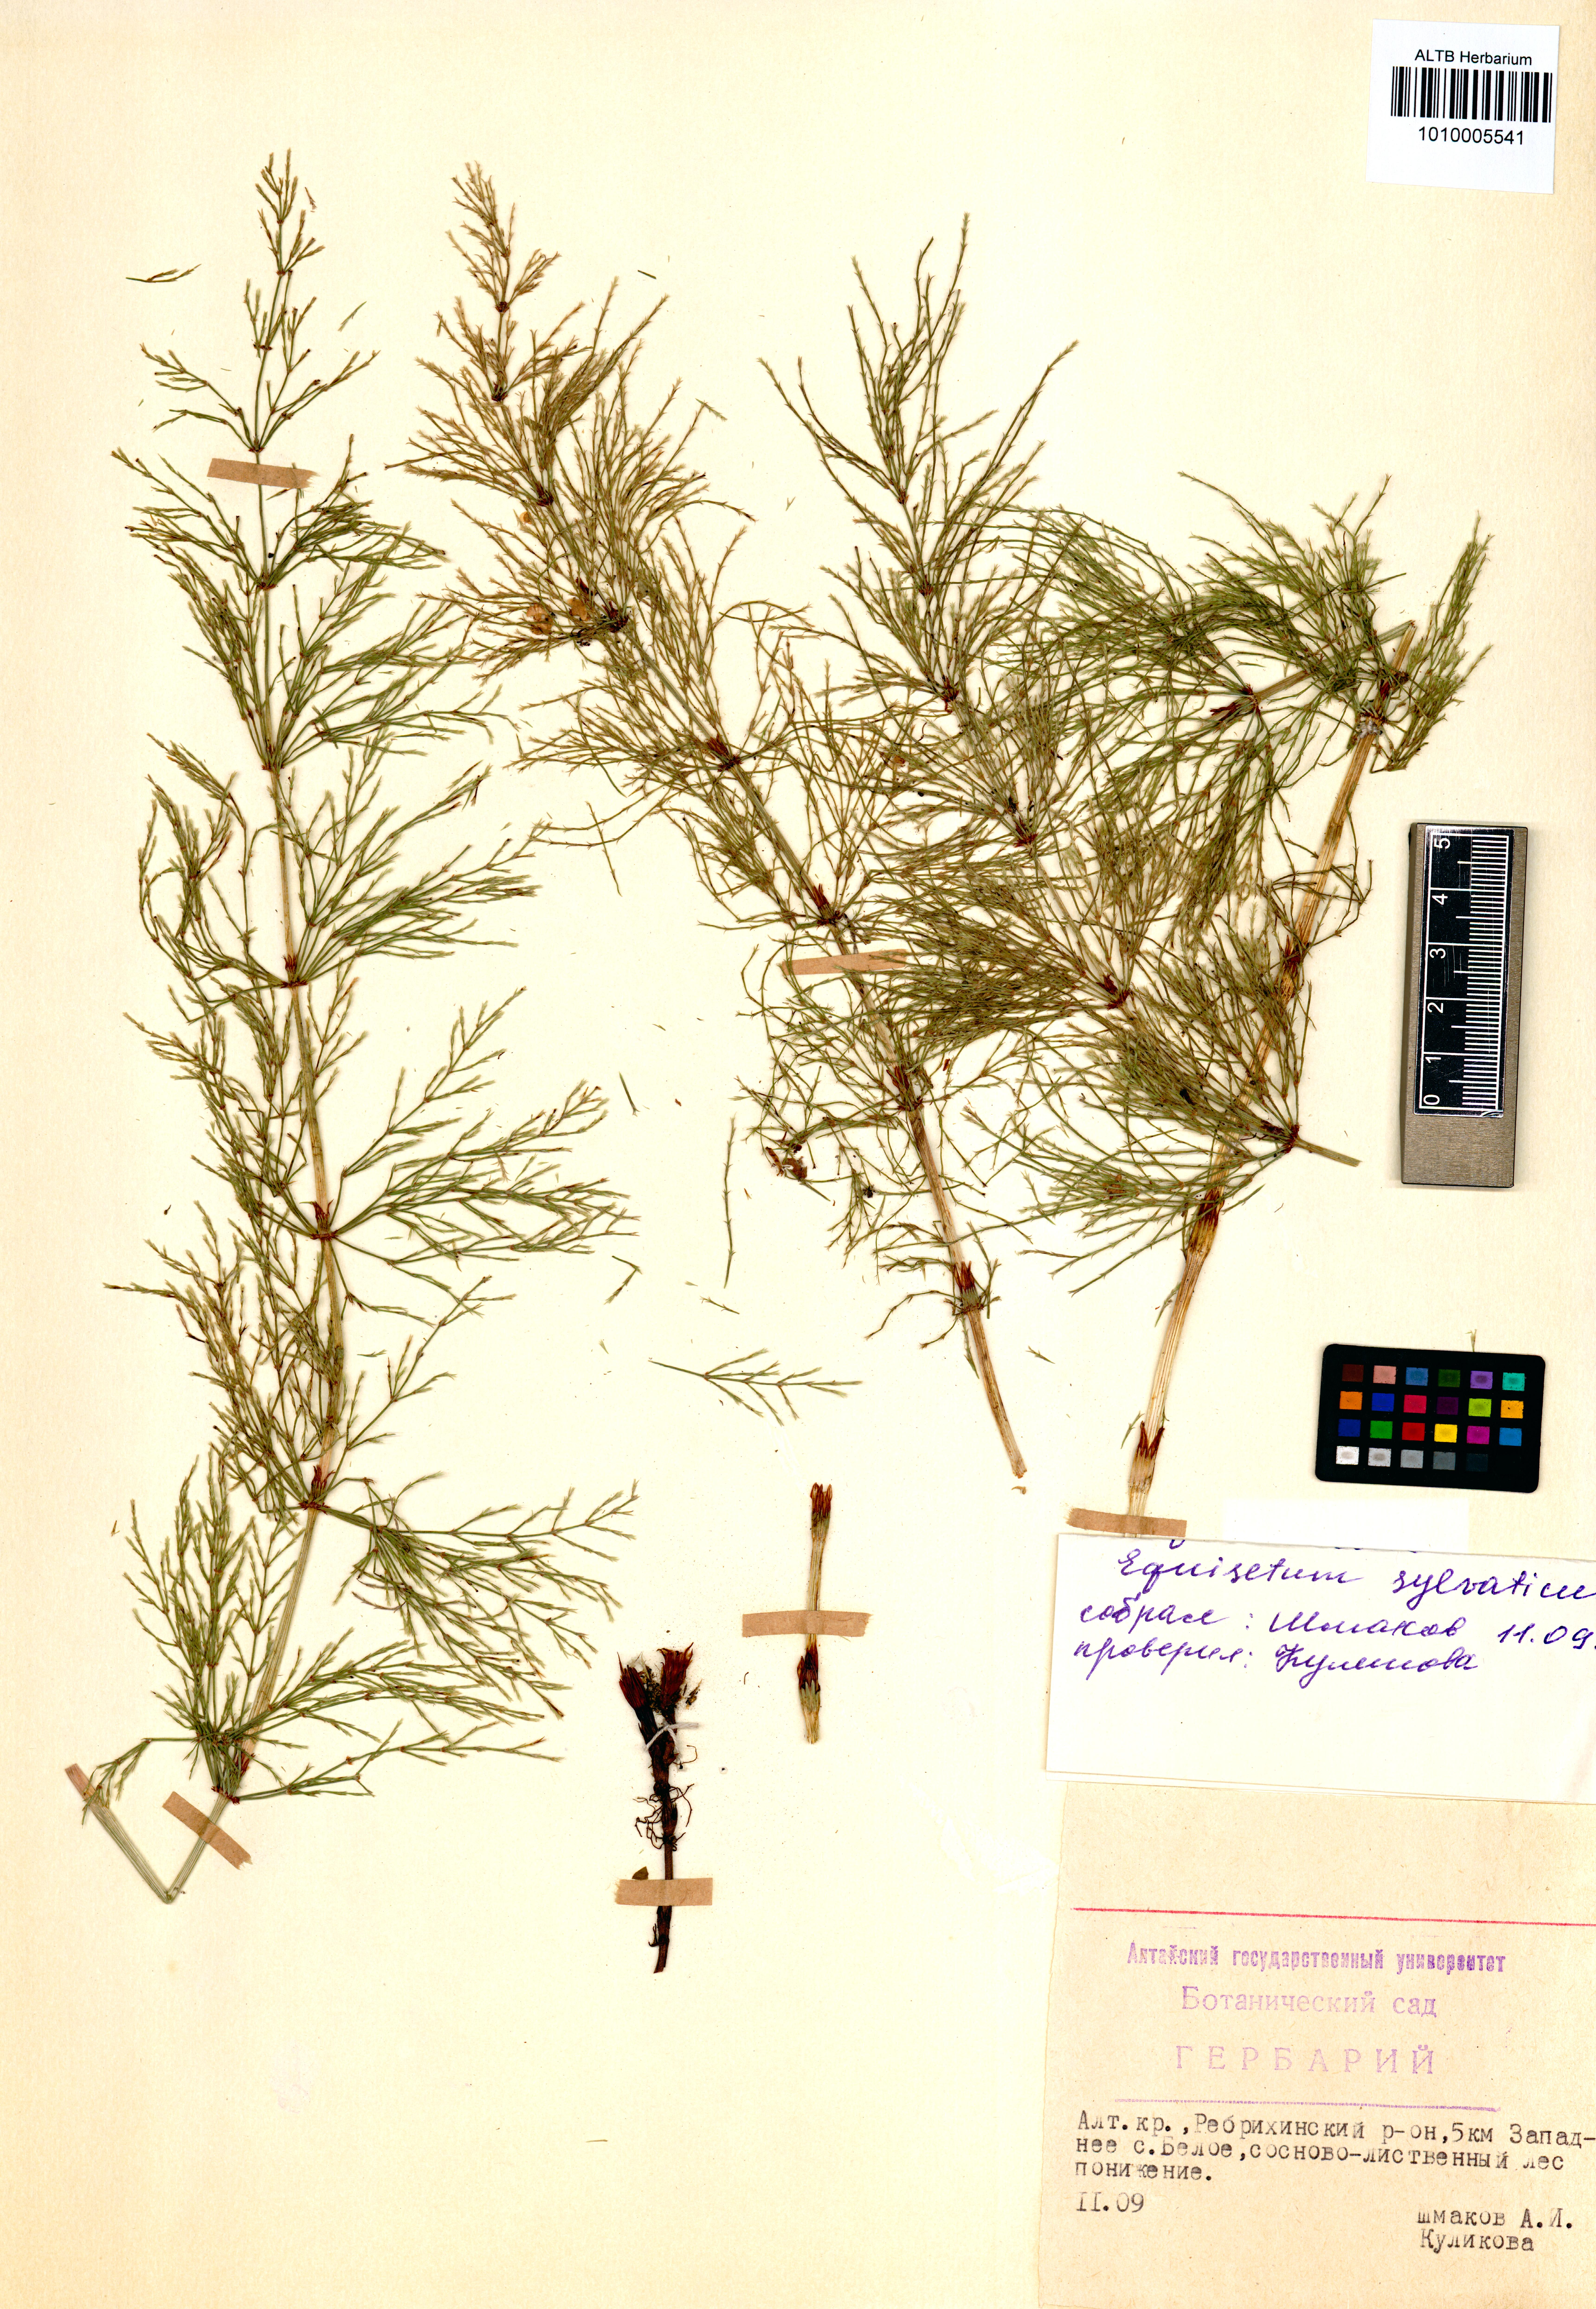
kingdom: Plantae
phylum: Tracheophyta
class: Polypodiopsida
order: Equisetales
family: Equisetaceae
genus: Equisetum
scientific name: Equisetum sylvaticum
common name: Wood horsetail
